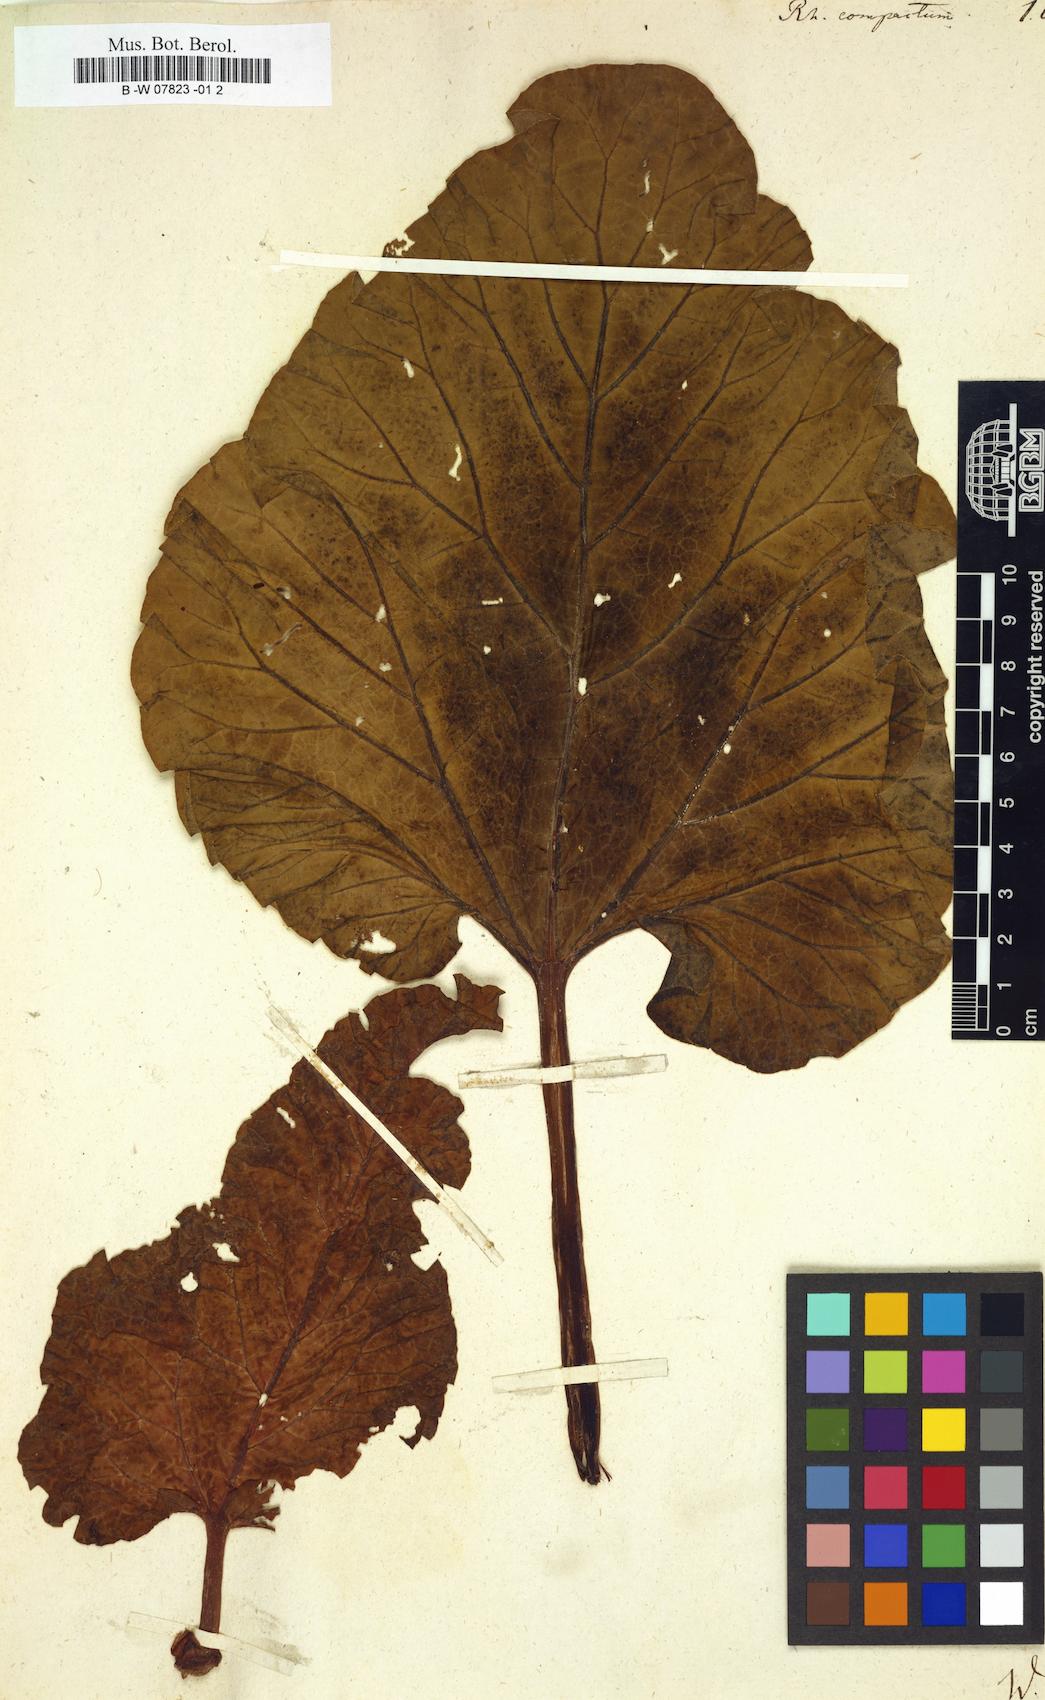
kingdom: Plantae
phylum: Tracheophyta
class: Magnoliopsida
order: Caryophyllales
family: Polygonaceae
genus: Rheum
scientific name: Rheum compactum
